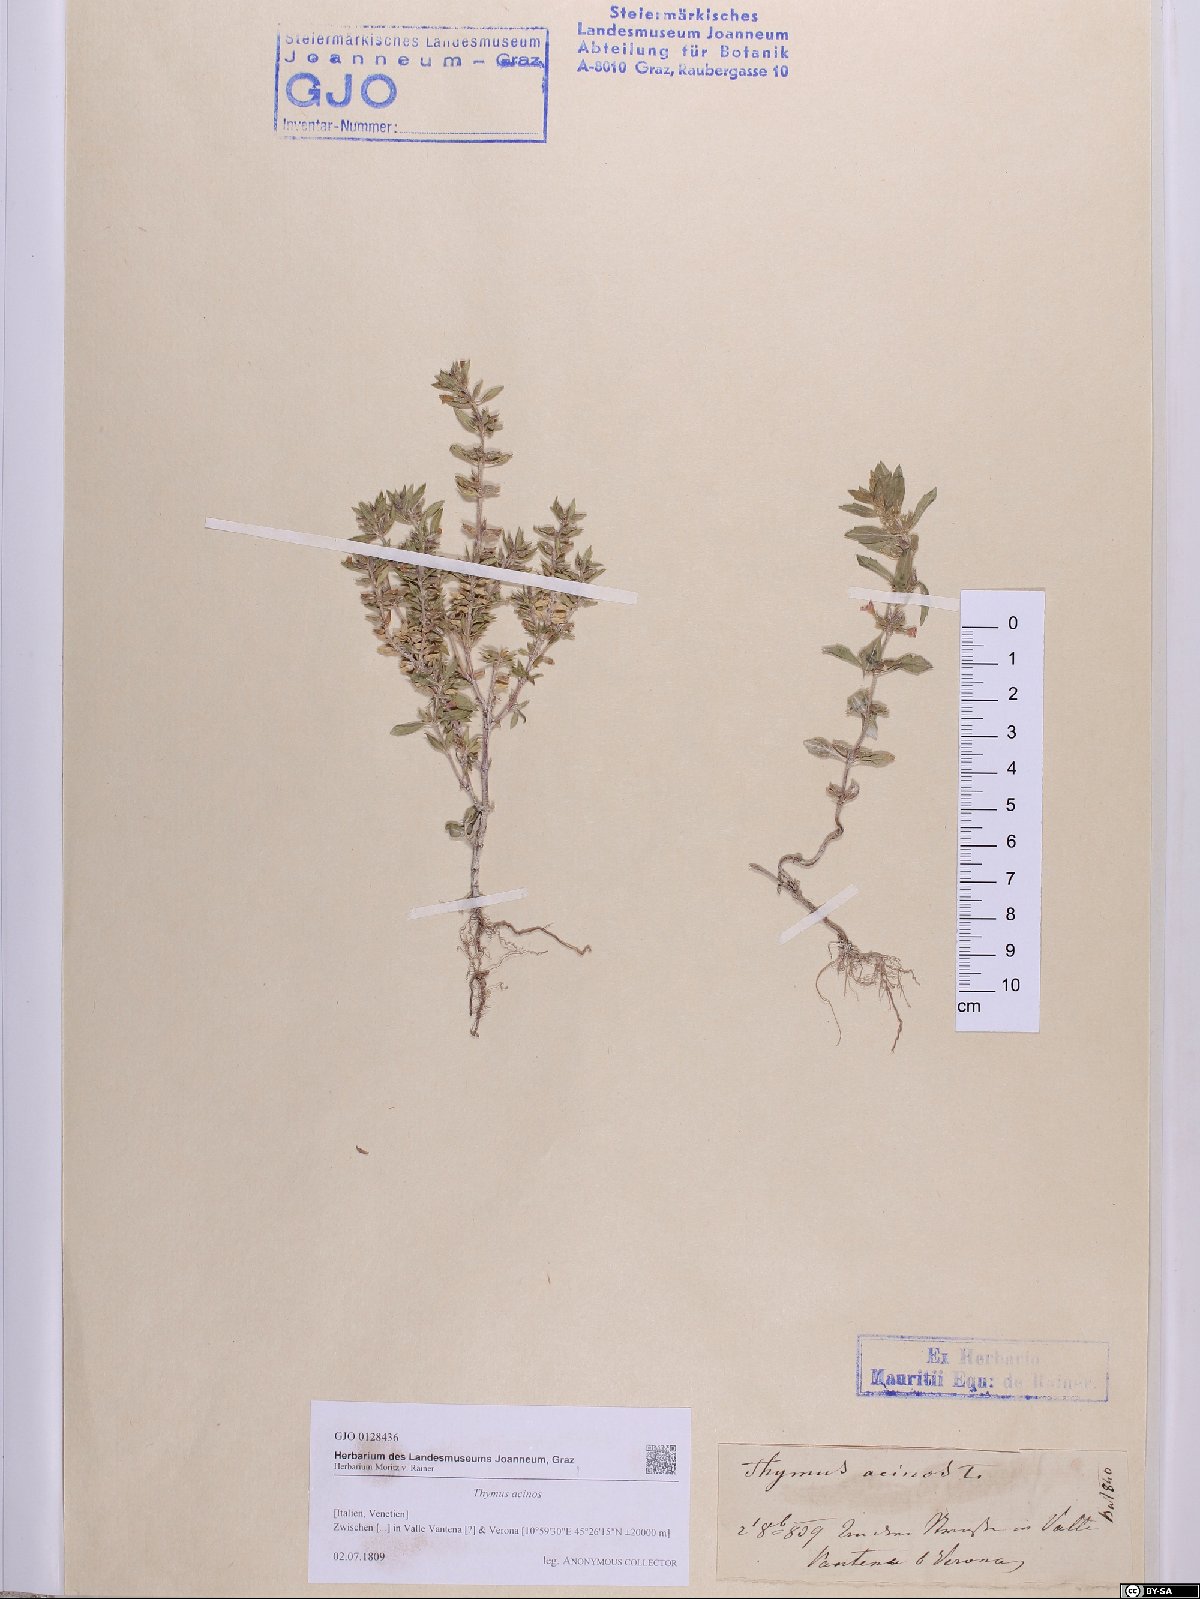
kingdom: Plantae
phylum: Tracheophyta
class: Magnoliopsida
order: Lamiales
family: Lamiaceae
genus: Clinopodium
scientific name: Clinopodium acinos
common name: Basil thyme
